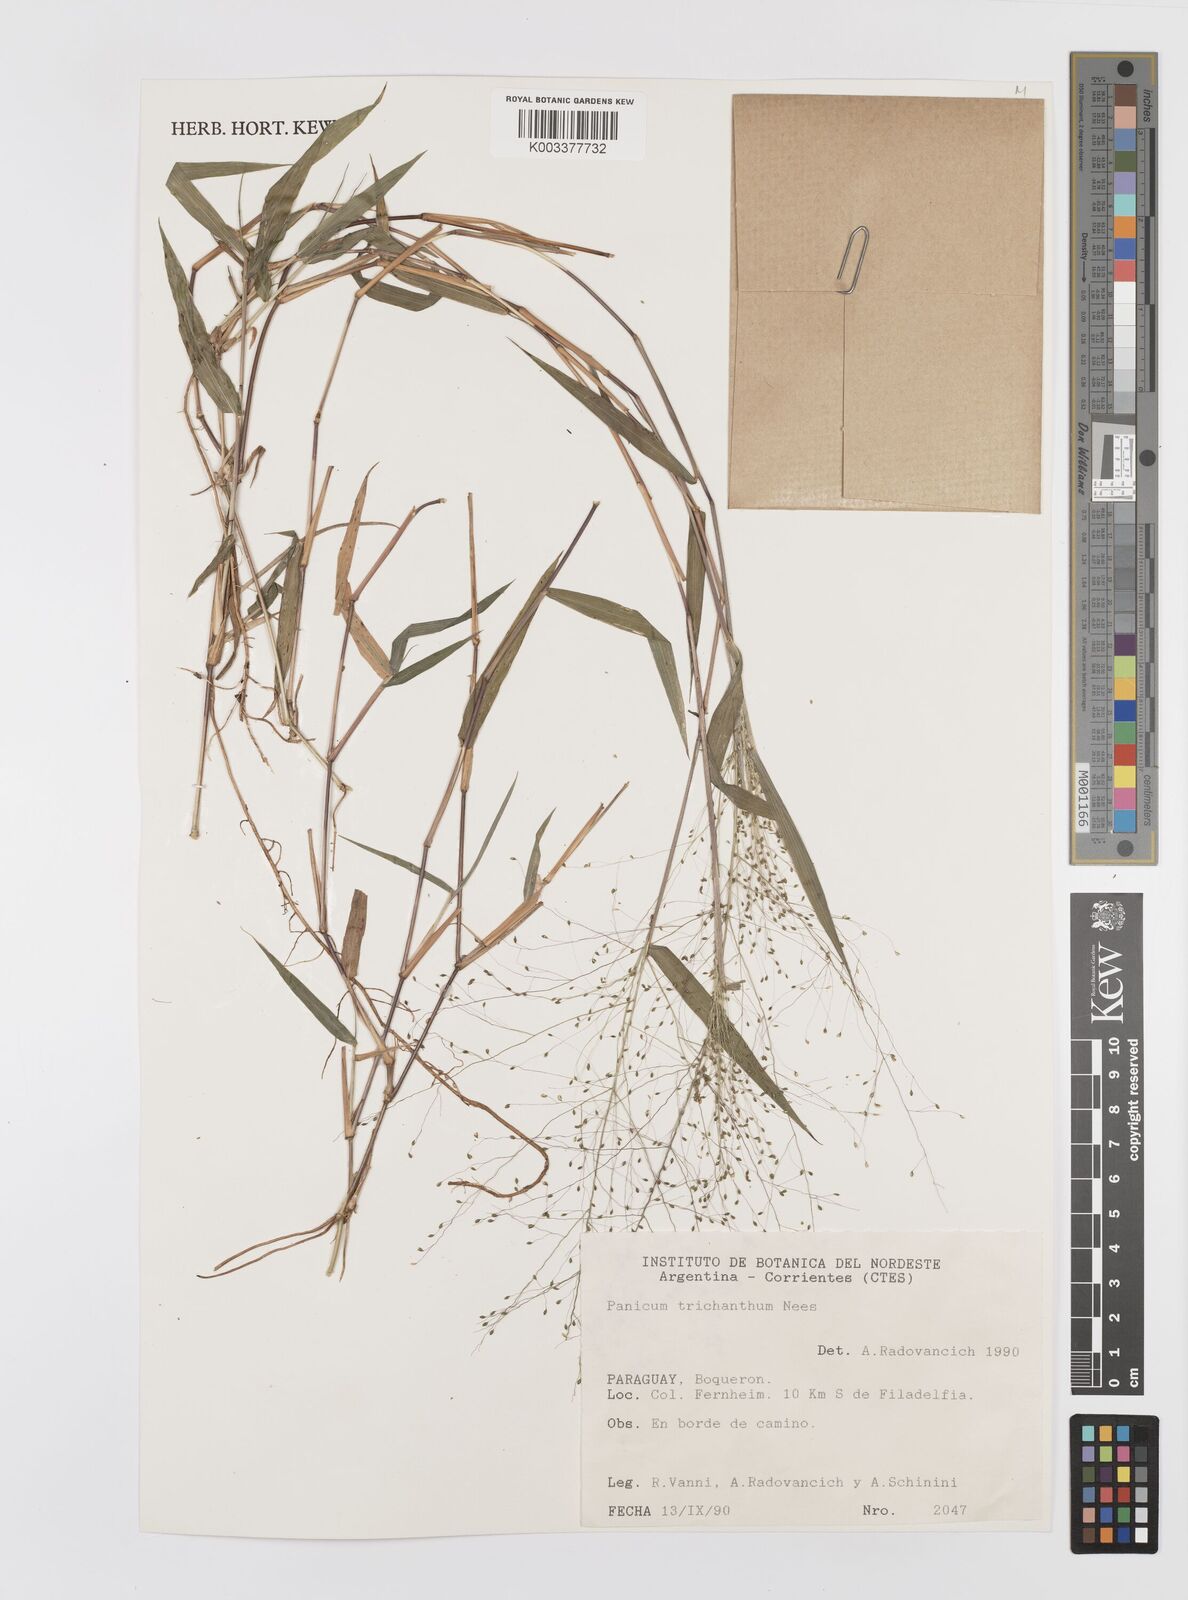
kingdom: Plantae
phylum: Tracheophyta
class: Liliopsida
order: Poales
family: Poaceae
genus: Panicum
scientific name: Panicum trichanthum
